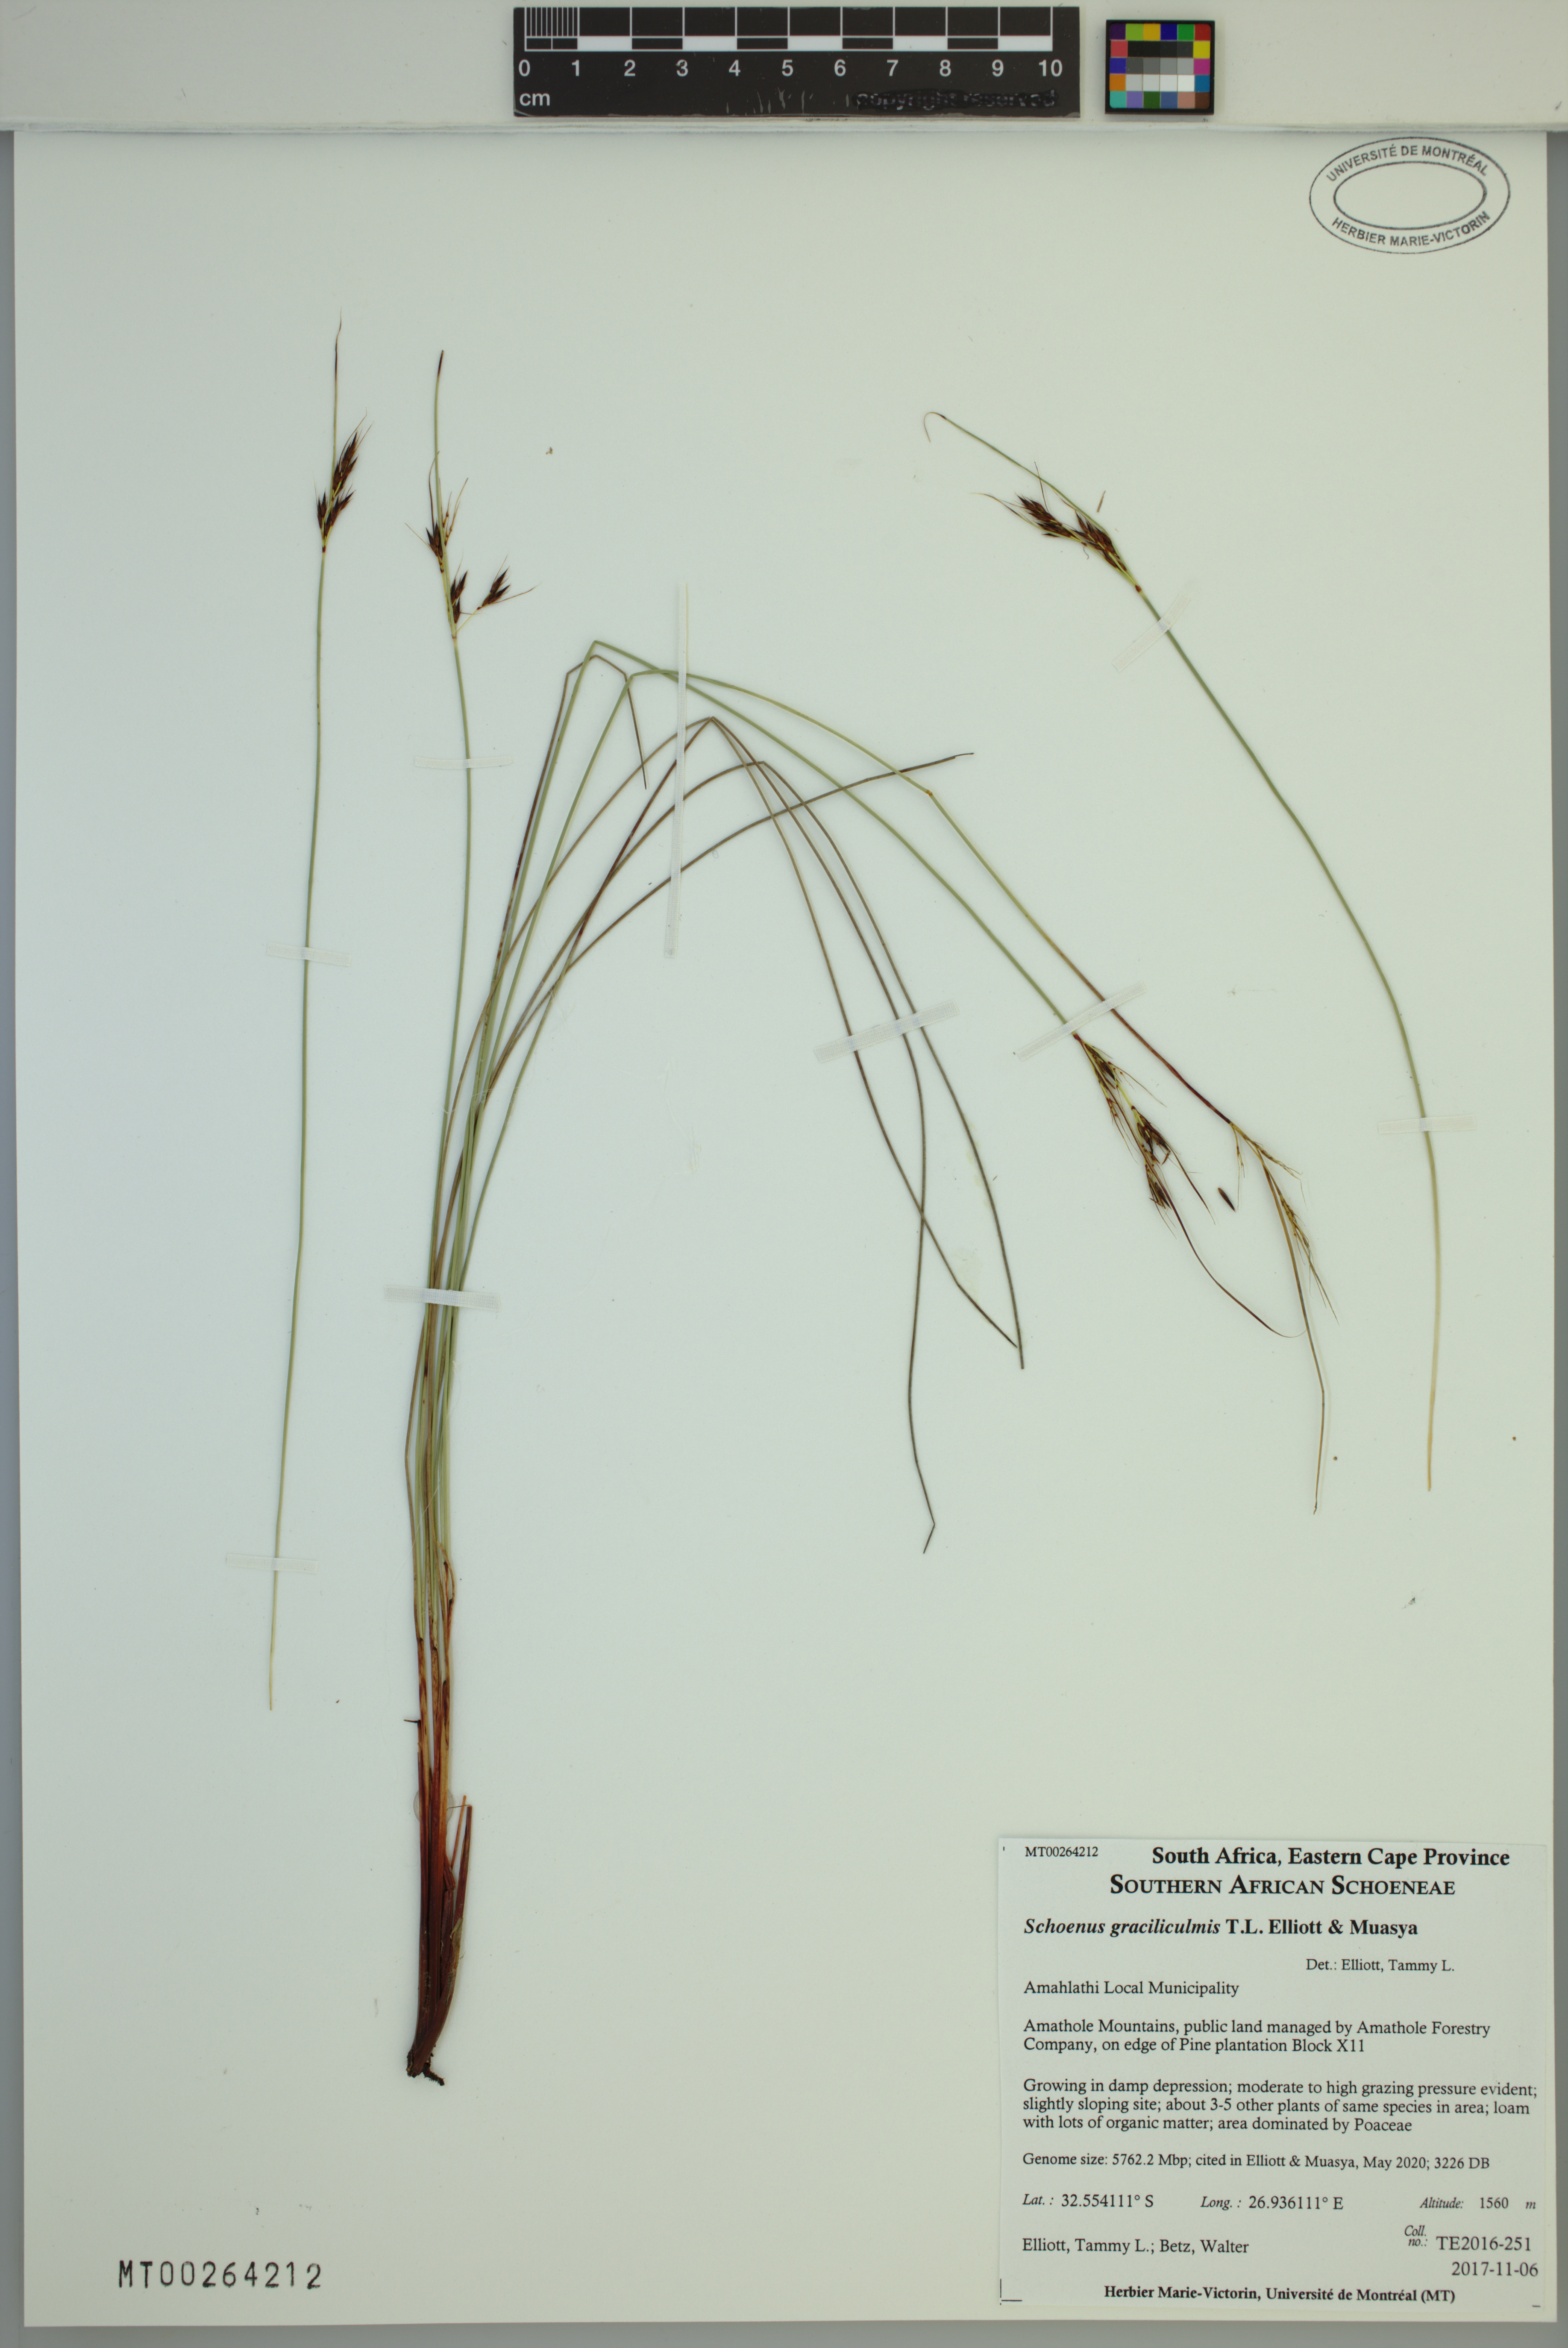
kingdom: Plantae
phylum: Tracheophyta
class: Liliopsida
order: Poales
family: Cyperaceae
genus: Schoenus
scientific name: Schoenus graciliculmis
